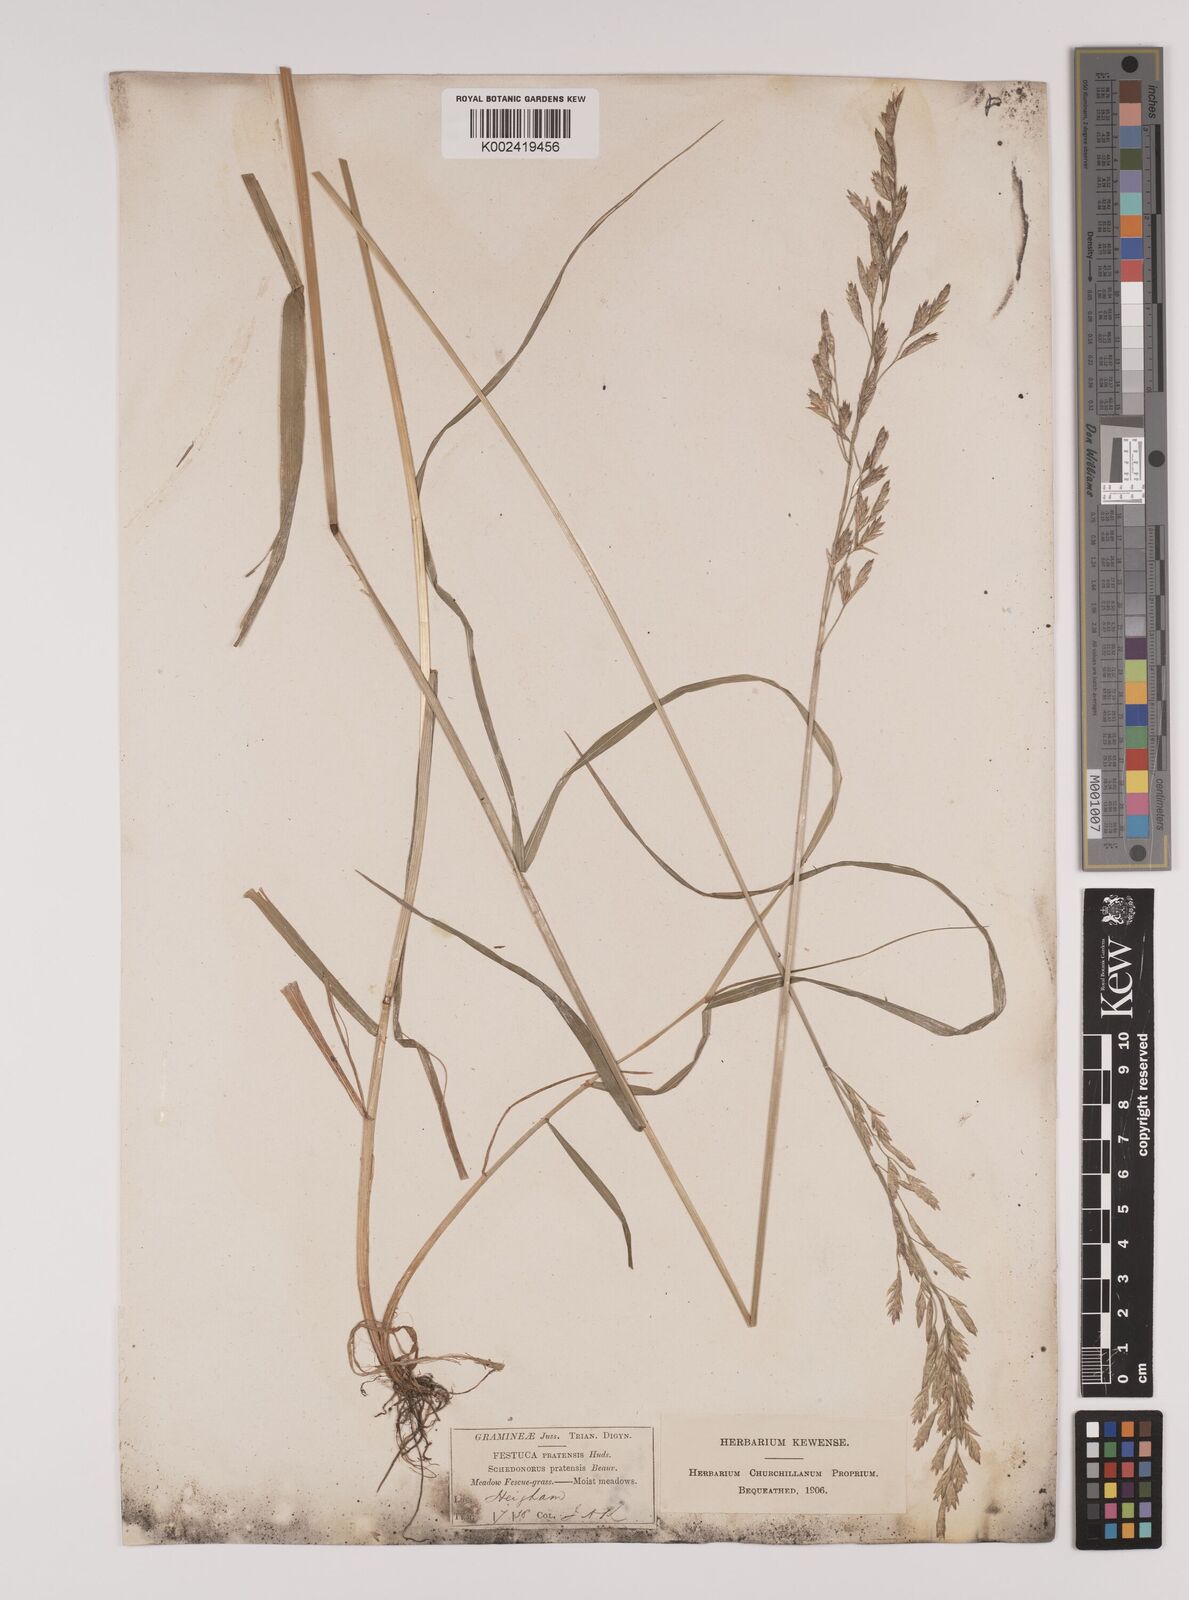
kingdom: Plantae
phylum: Tracheophyta
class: Liliopsida
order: Poales
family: Poaceae
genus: Lolium
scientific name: Lolium pratense
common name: Dover grass
